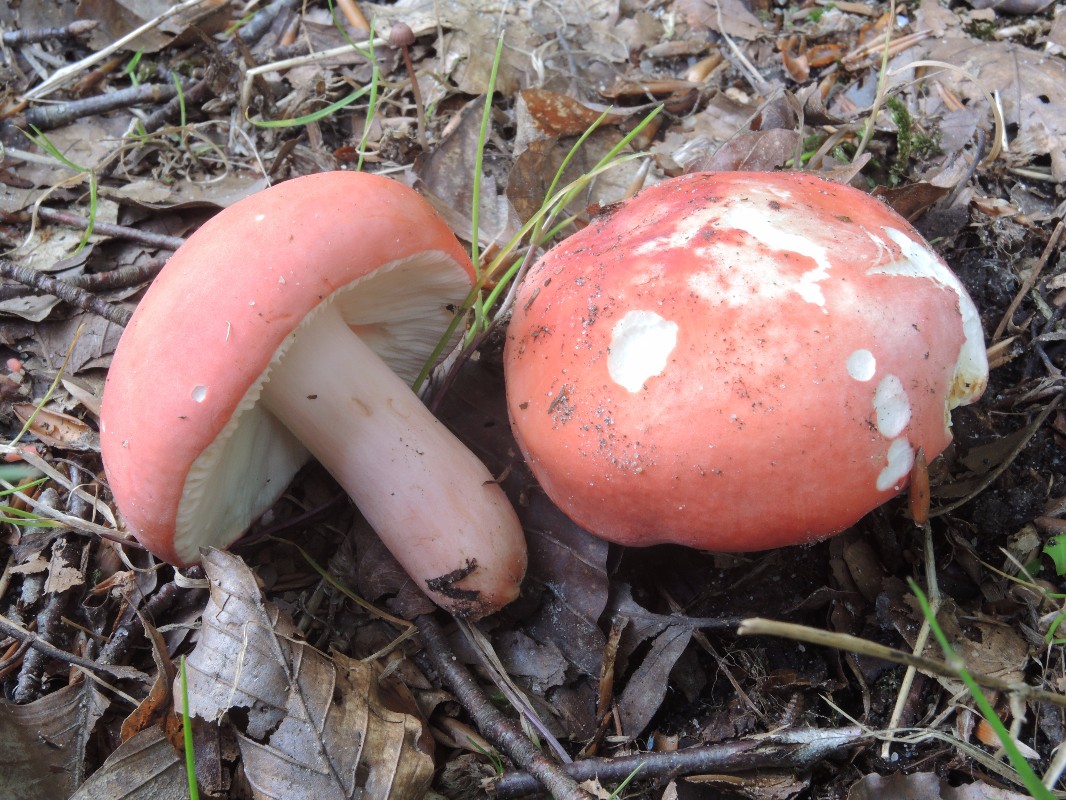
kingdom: Fungi
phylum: Basidiomycota
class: Agaricomycetes
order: Russulales
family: Russulaceae
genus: Russula
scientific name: Russula rosea
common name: fastkødet skørhat
